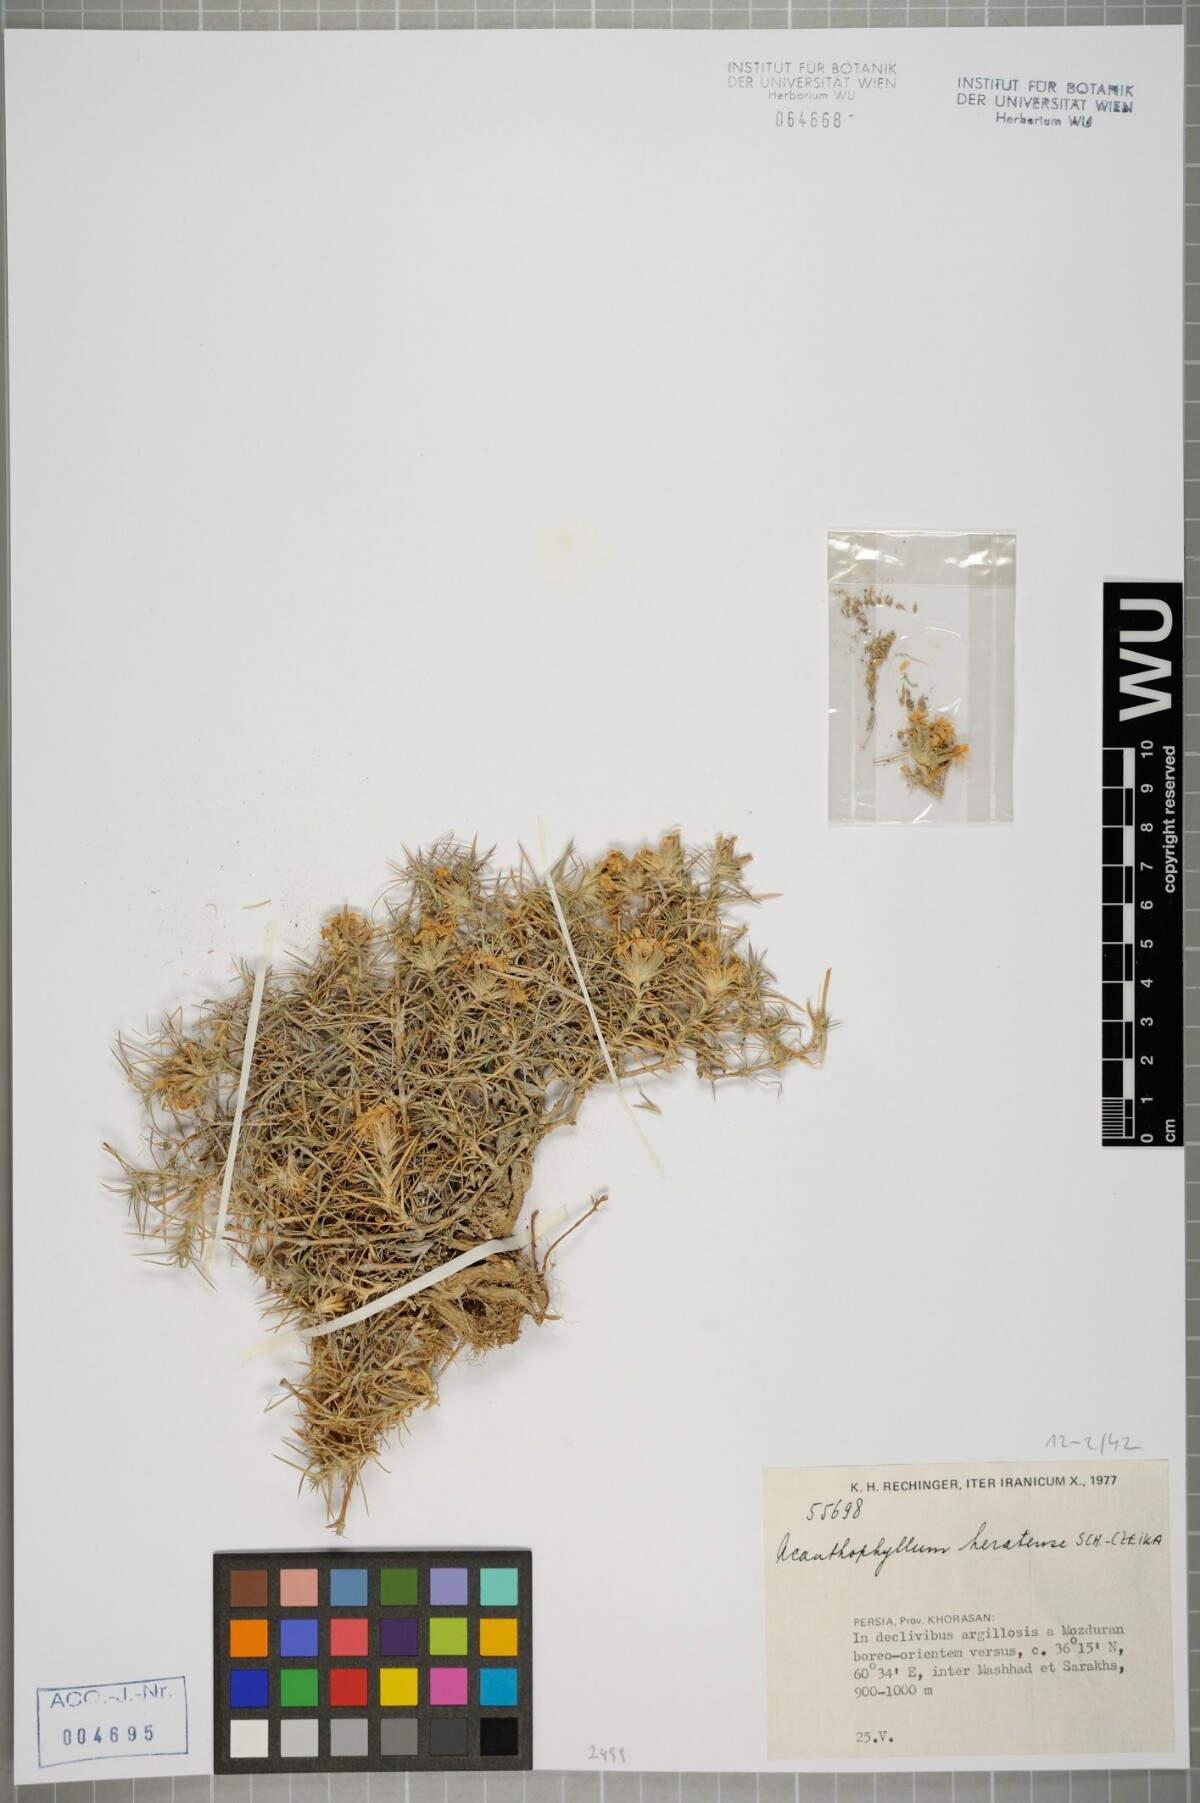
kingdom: Plantae
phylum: Tracheophyta
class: Magnoliopsida
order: Caryophyllales
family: Caryophyllaceae
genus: Acanthophyllum
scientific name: Acanthophyllum heratense
